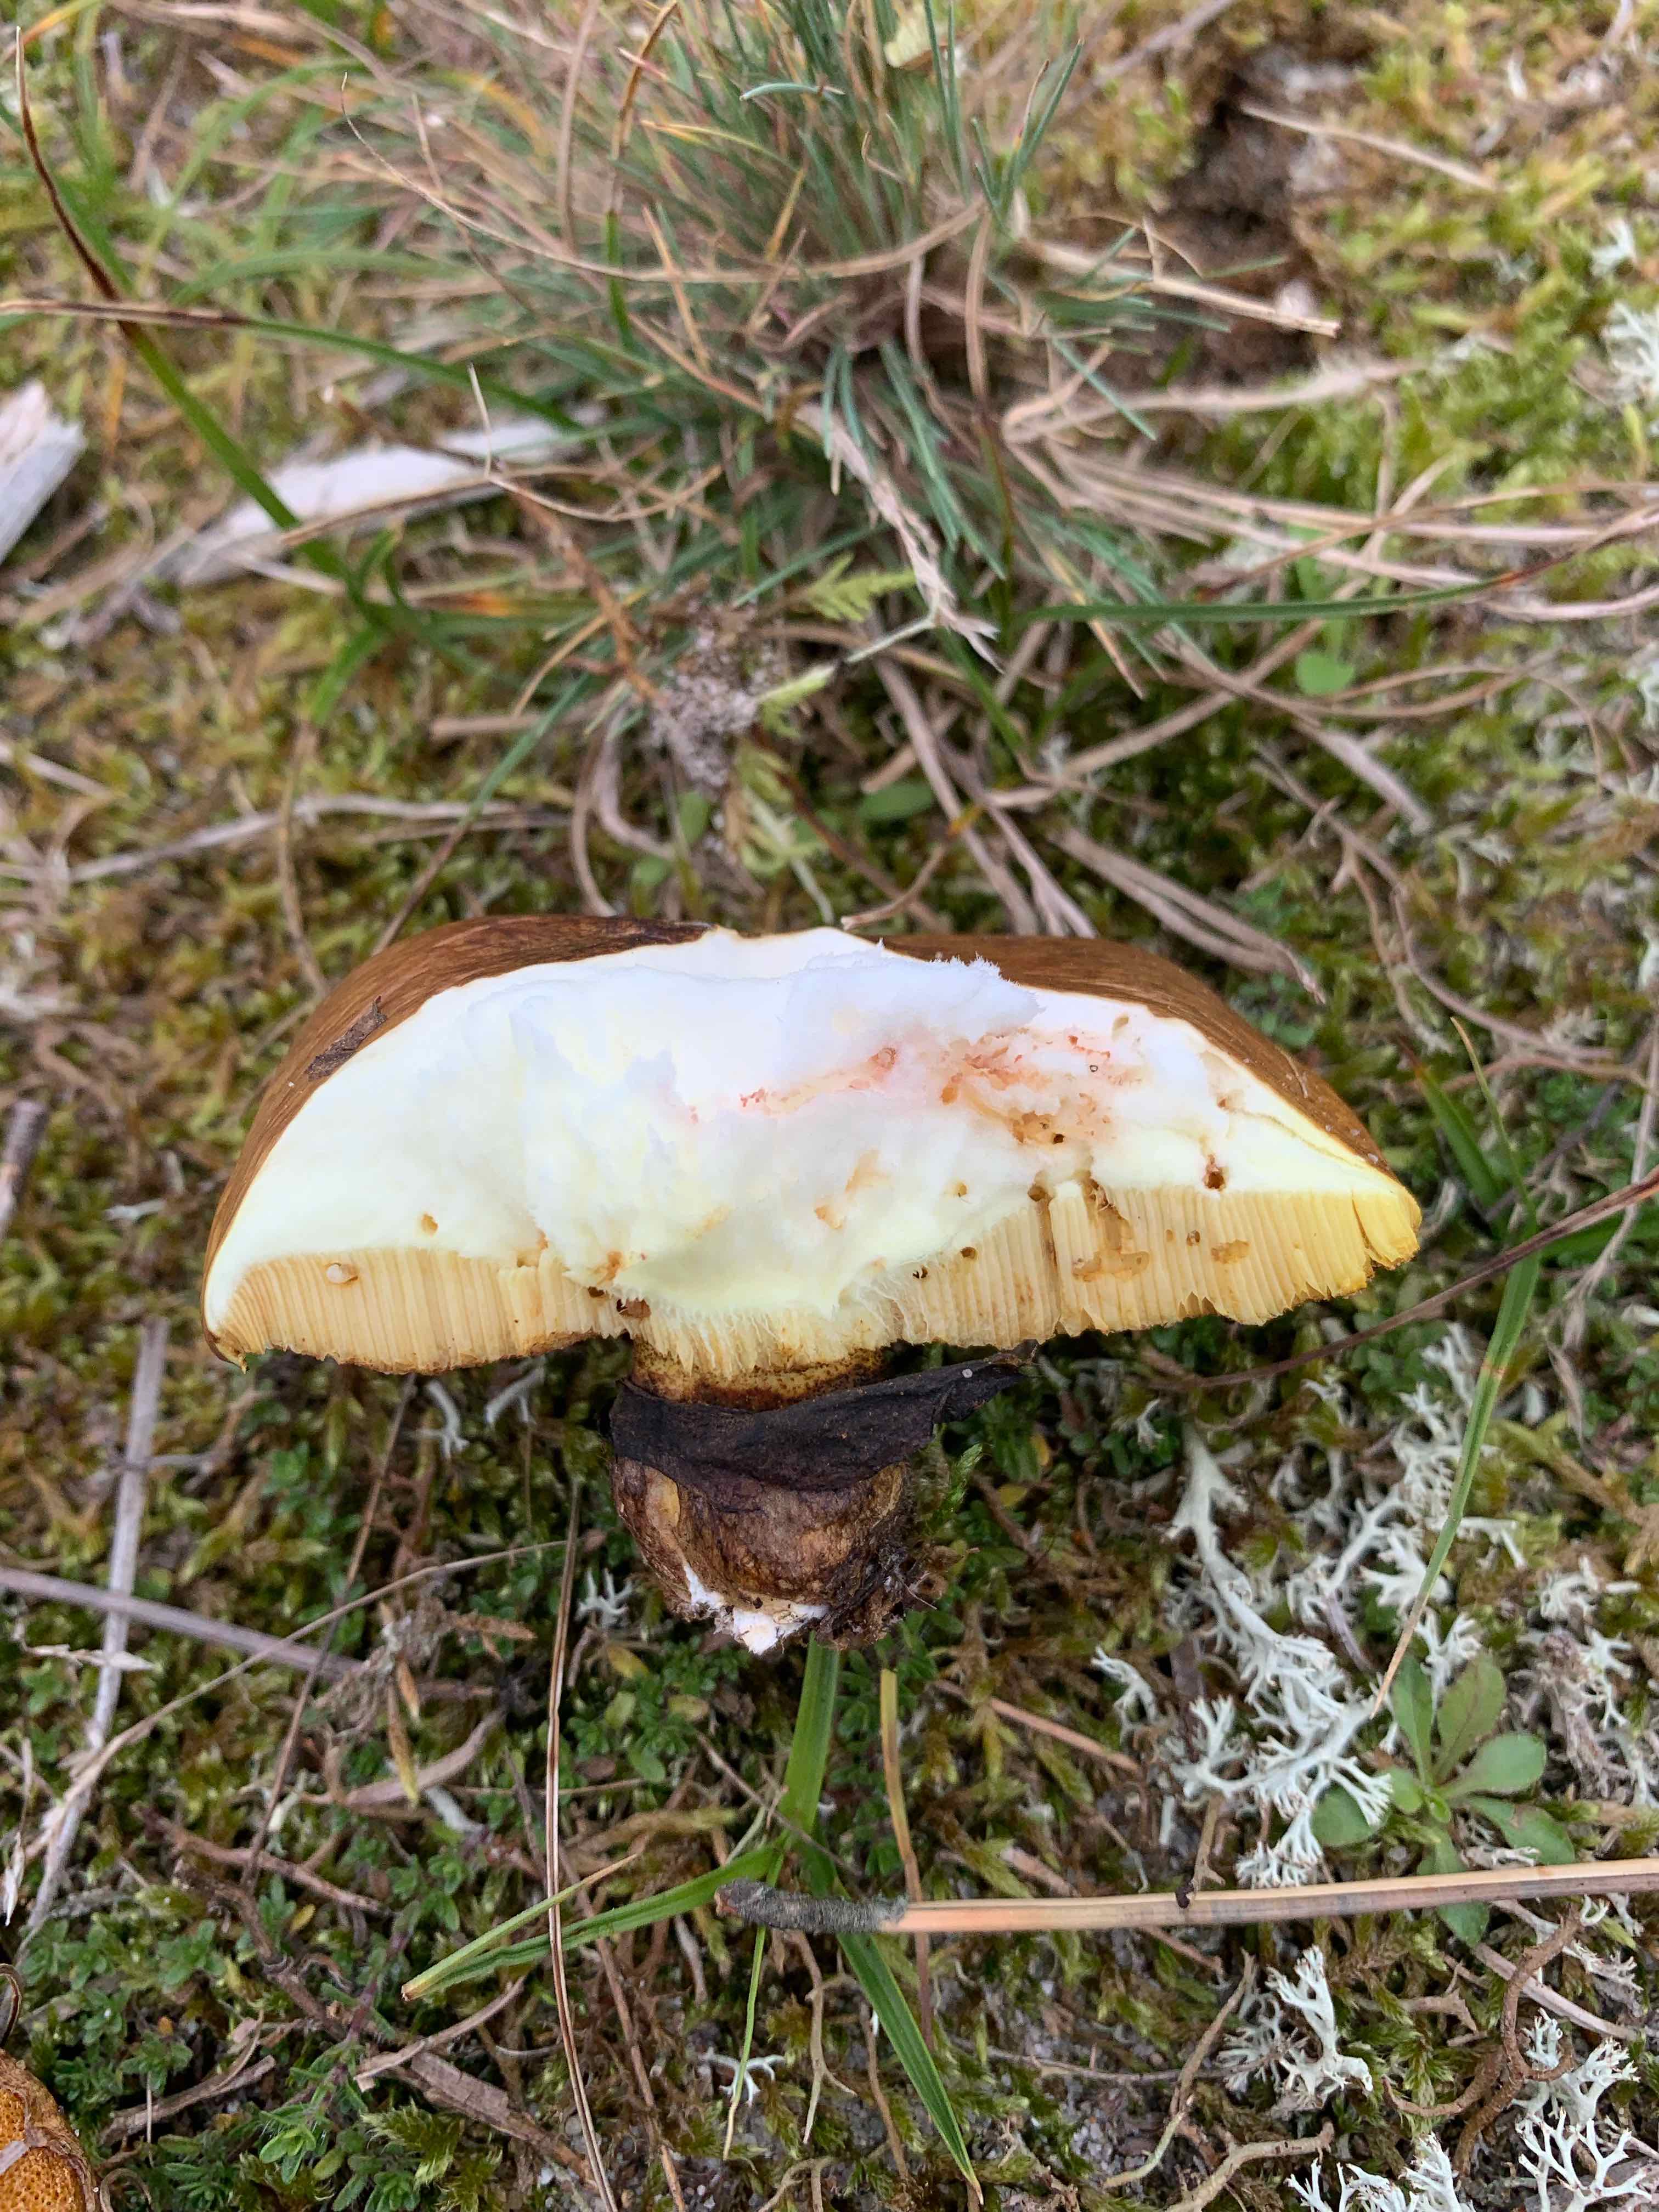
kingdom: Fungi
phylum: Basidiomycota
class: Agaricomycetes
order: Boletales
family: Suillaceae
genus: Suillus
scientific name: Suillus luteus
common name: brungul slimrørhat
